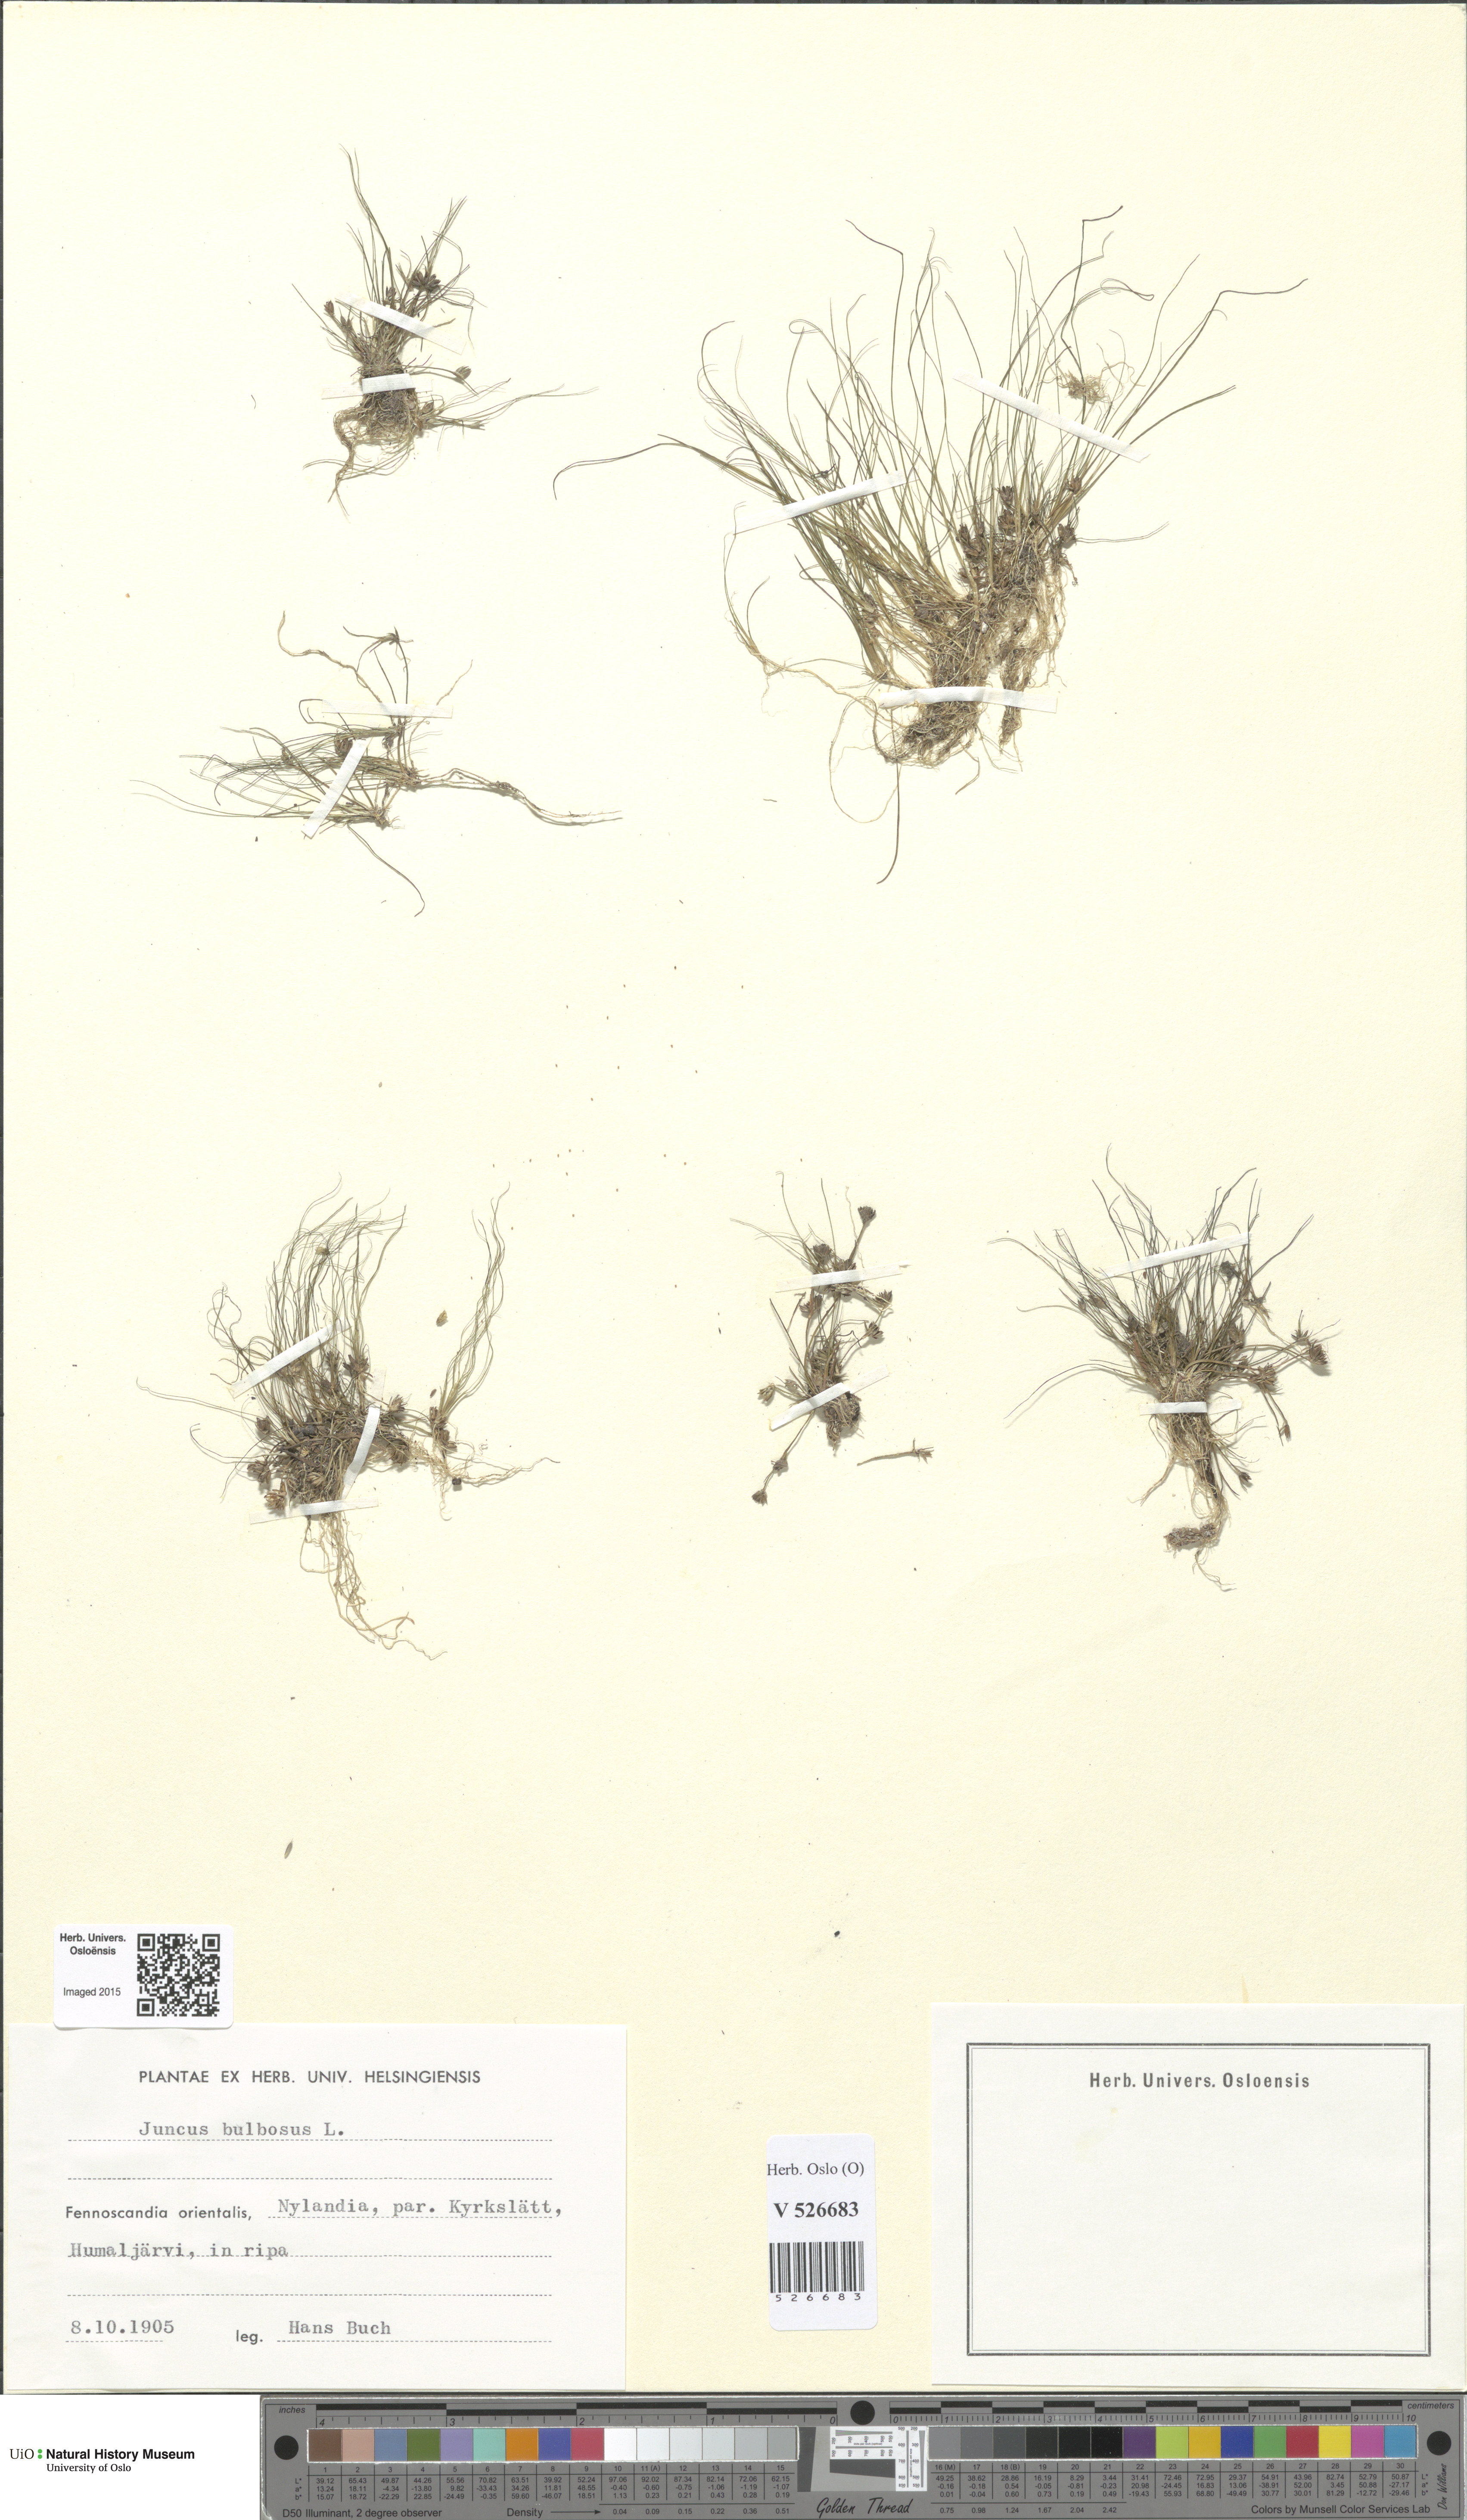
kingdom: Plantae
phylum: Tracheophyta
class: Liliopsida
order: Poales
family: Juncaceae
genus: Juncus
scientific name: Juncus bulbosus
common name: Bulbous rush
